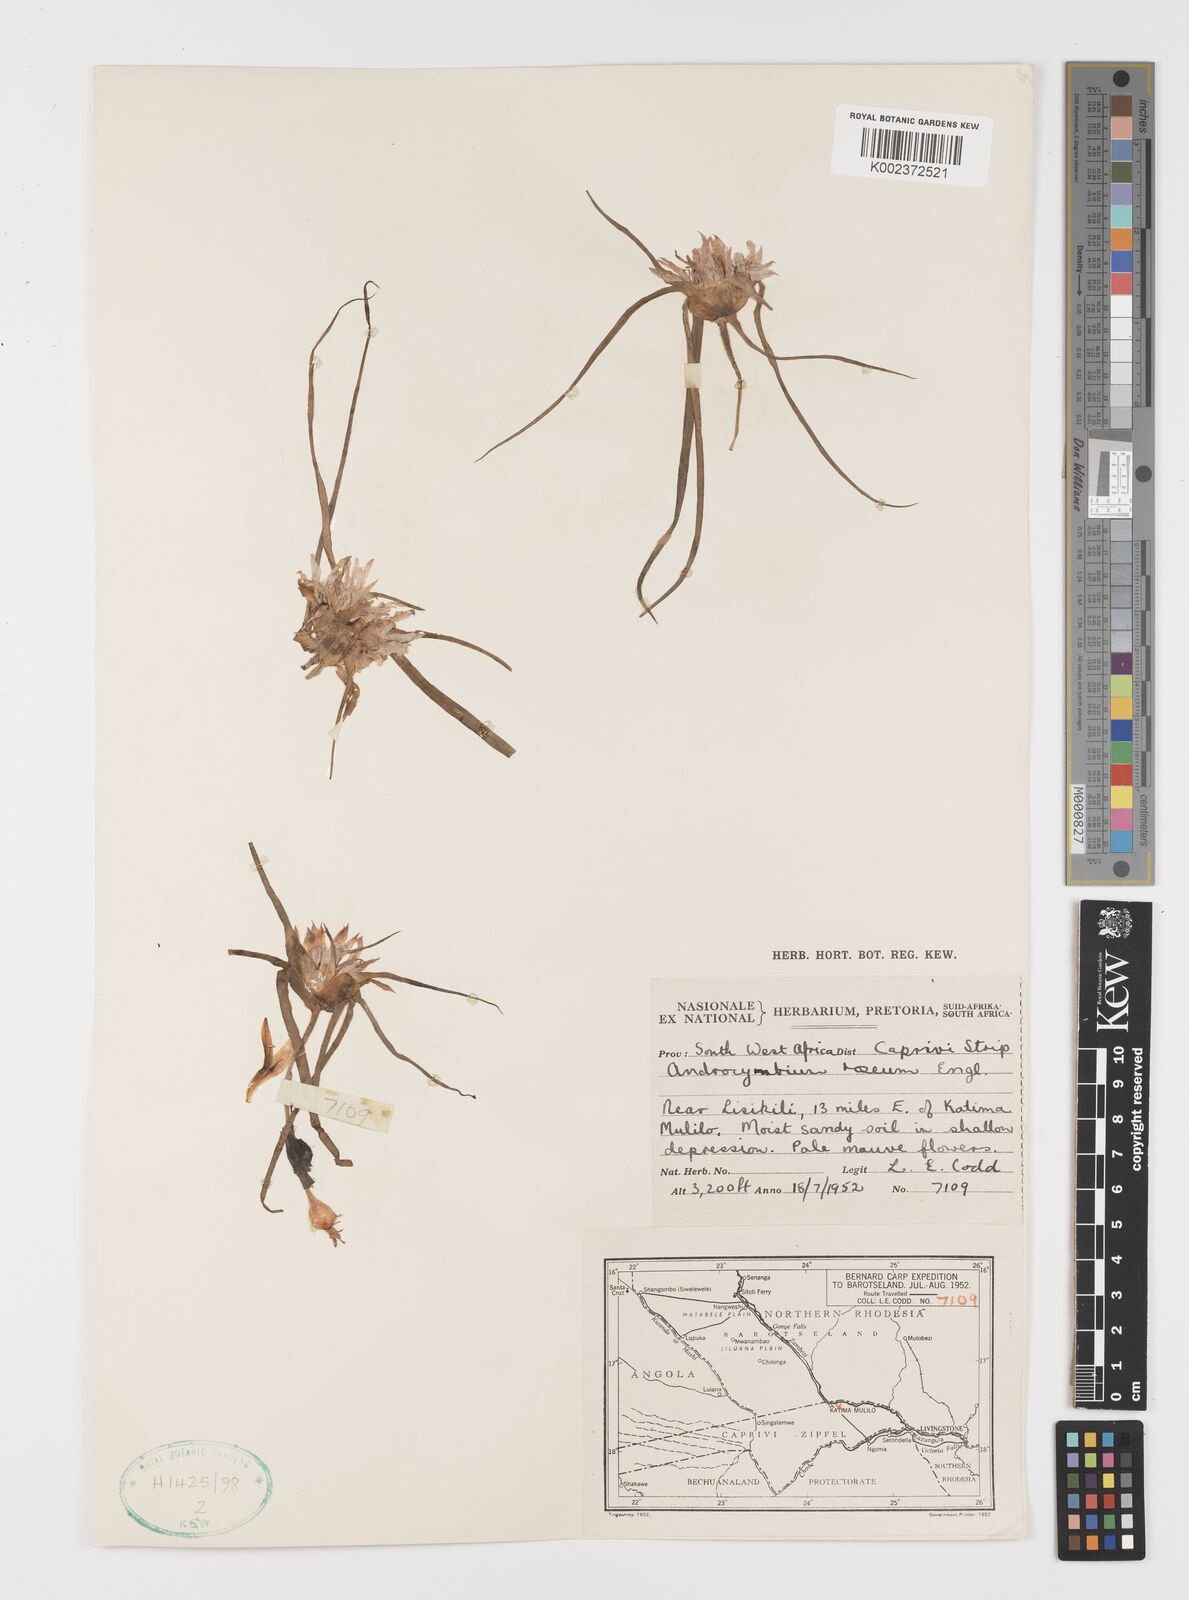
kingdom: Plantae
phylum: Tracheophyta
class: Liliopsida
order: Liliales
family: Colchicaceae
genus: Colchicum
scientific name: Colchicum roseum
